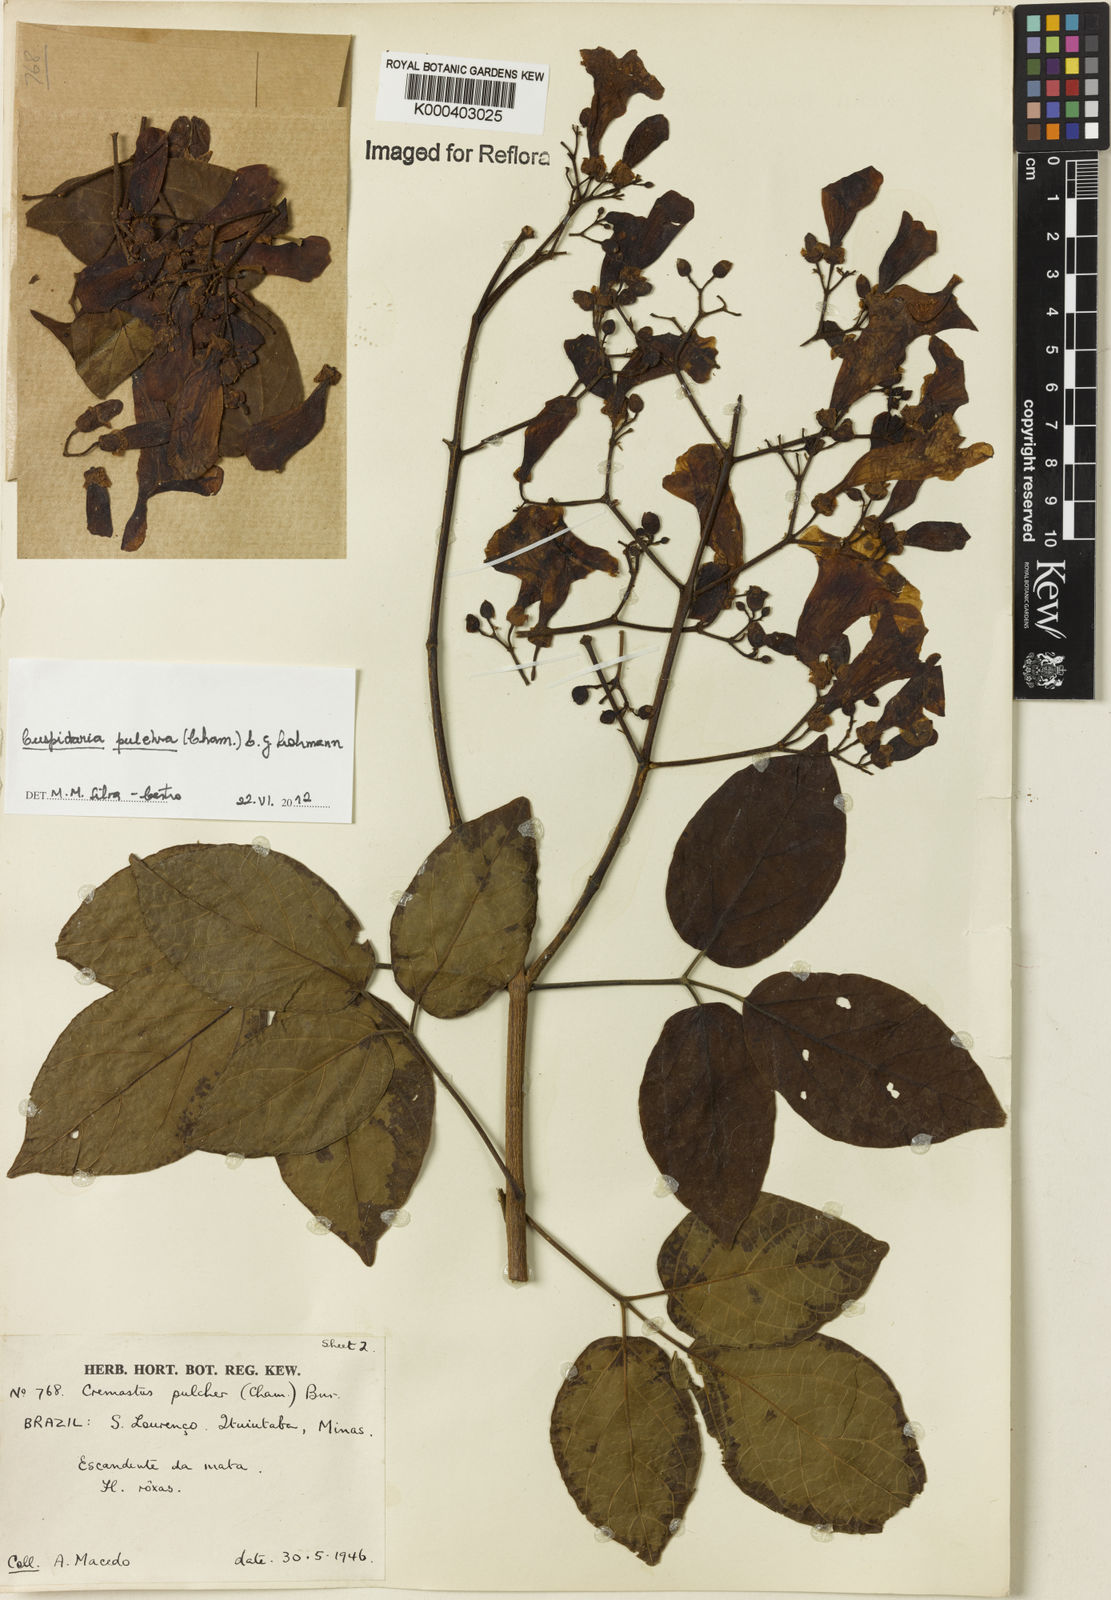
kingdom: Plantae
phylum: Tracheophyta
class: Magnoliopsida
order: Lamiales
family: Bignoniaceae
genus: Cuspidaria
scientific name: Cuspidaria pulchra
